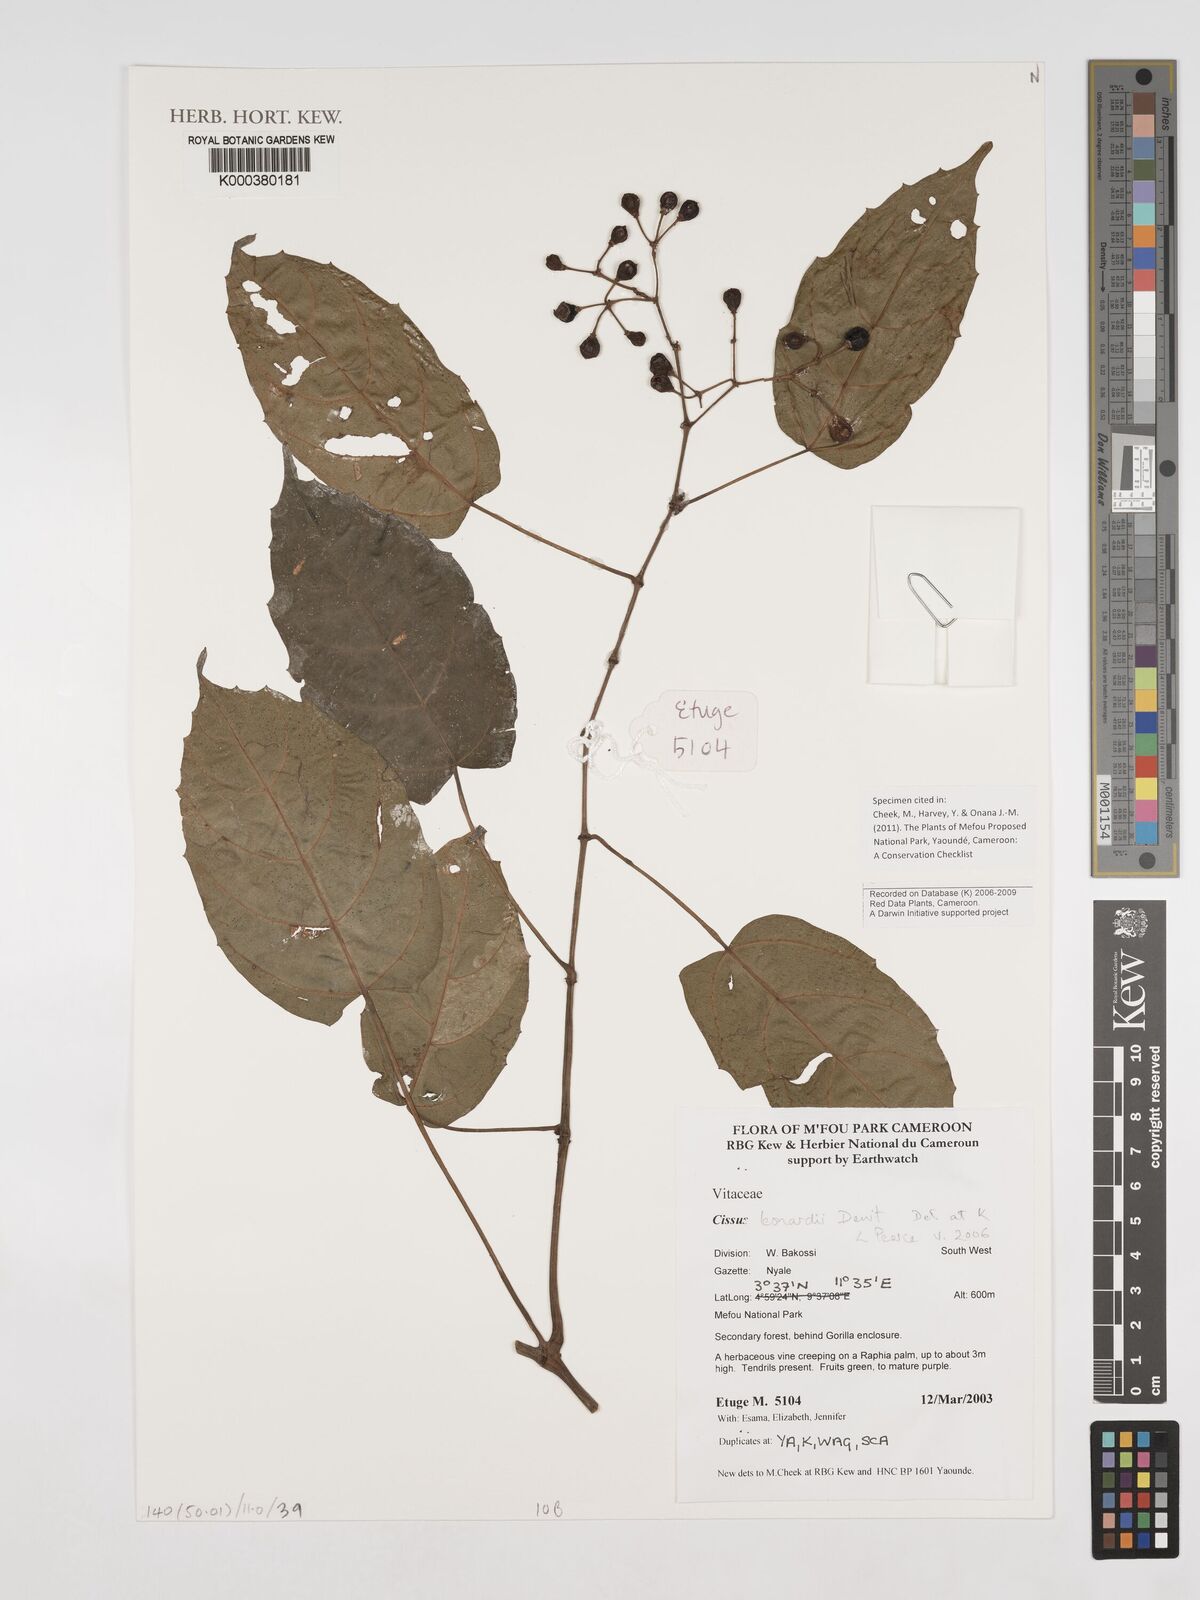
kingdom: Plantae
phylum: Tracheophyta
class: Magnoliopsida
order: Vitales
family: Vitaceae
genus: Cissus
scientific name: Cissus leonardii
